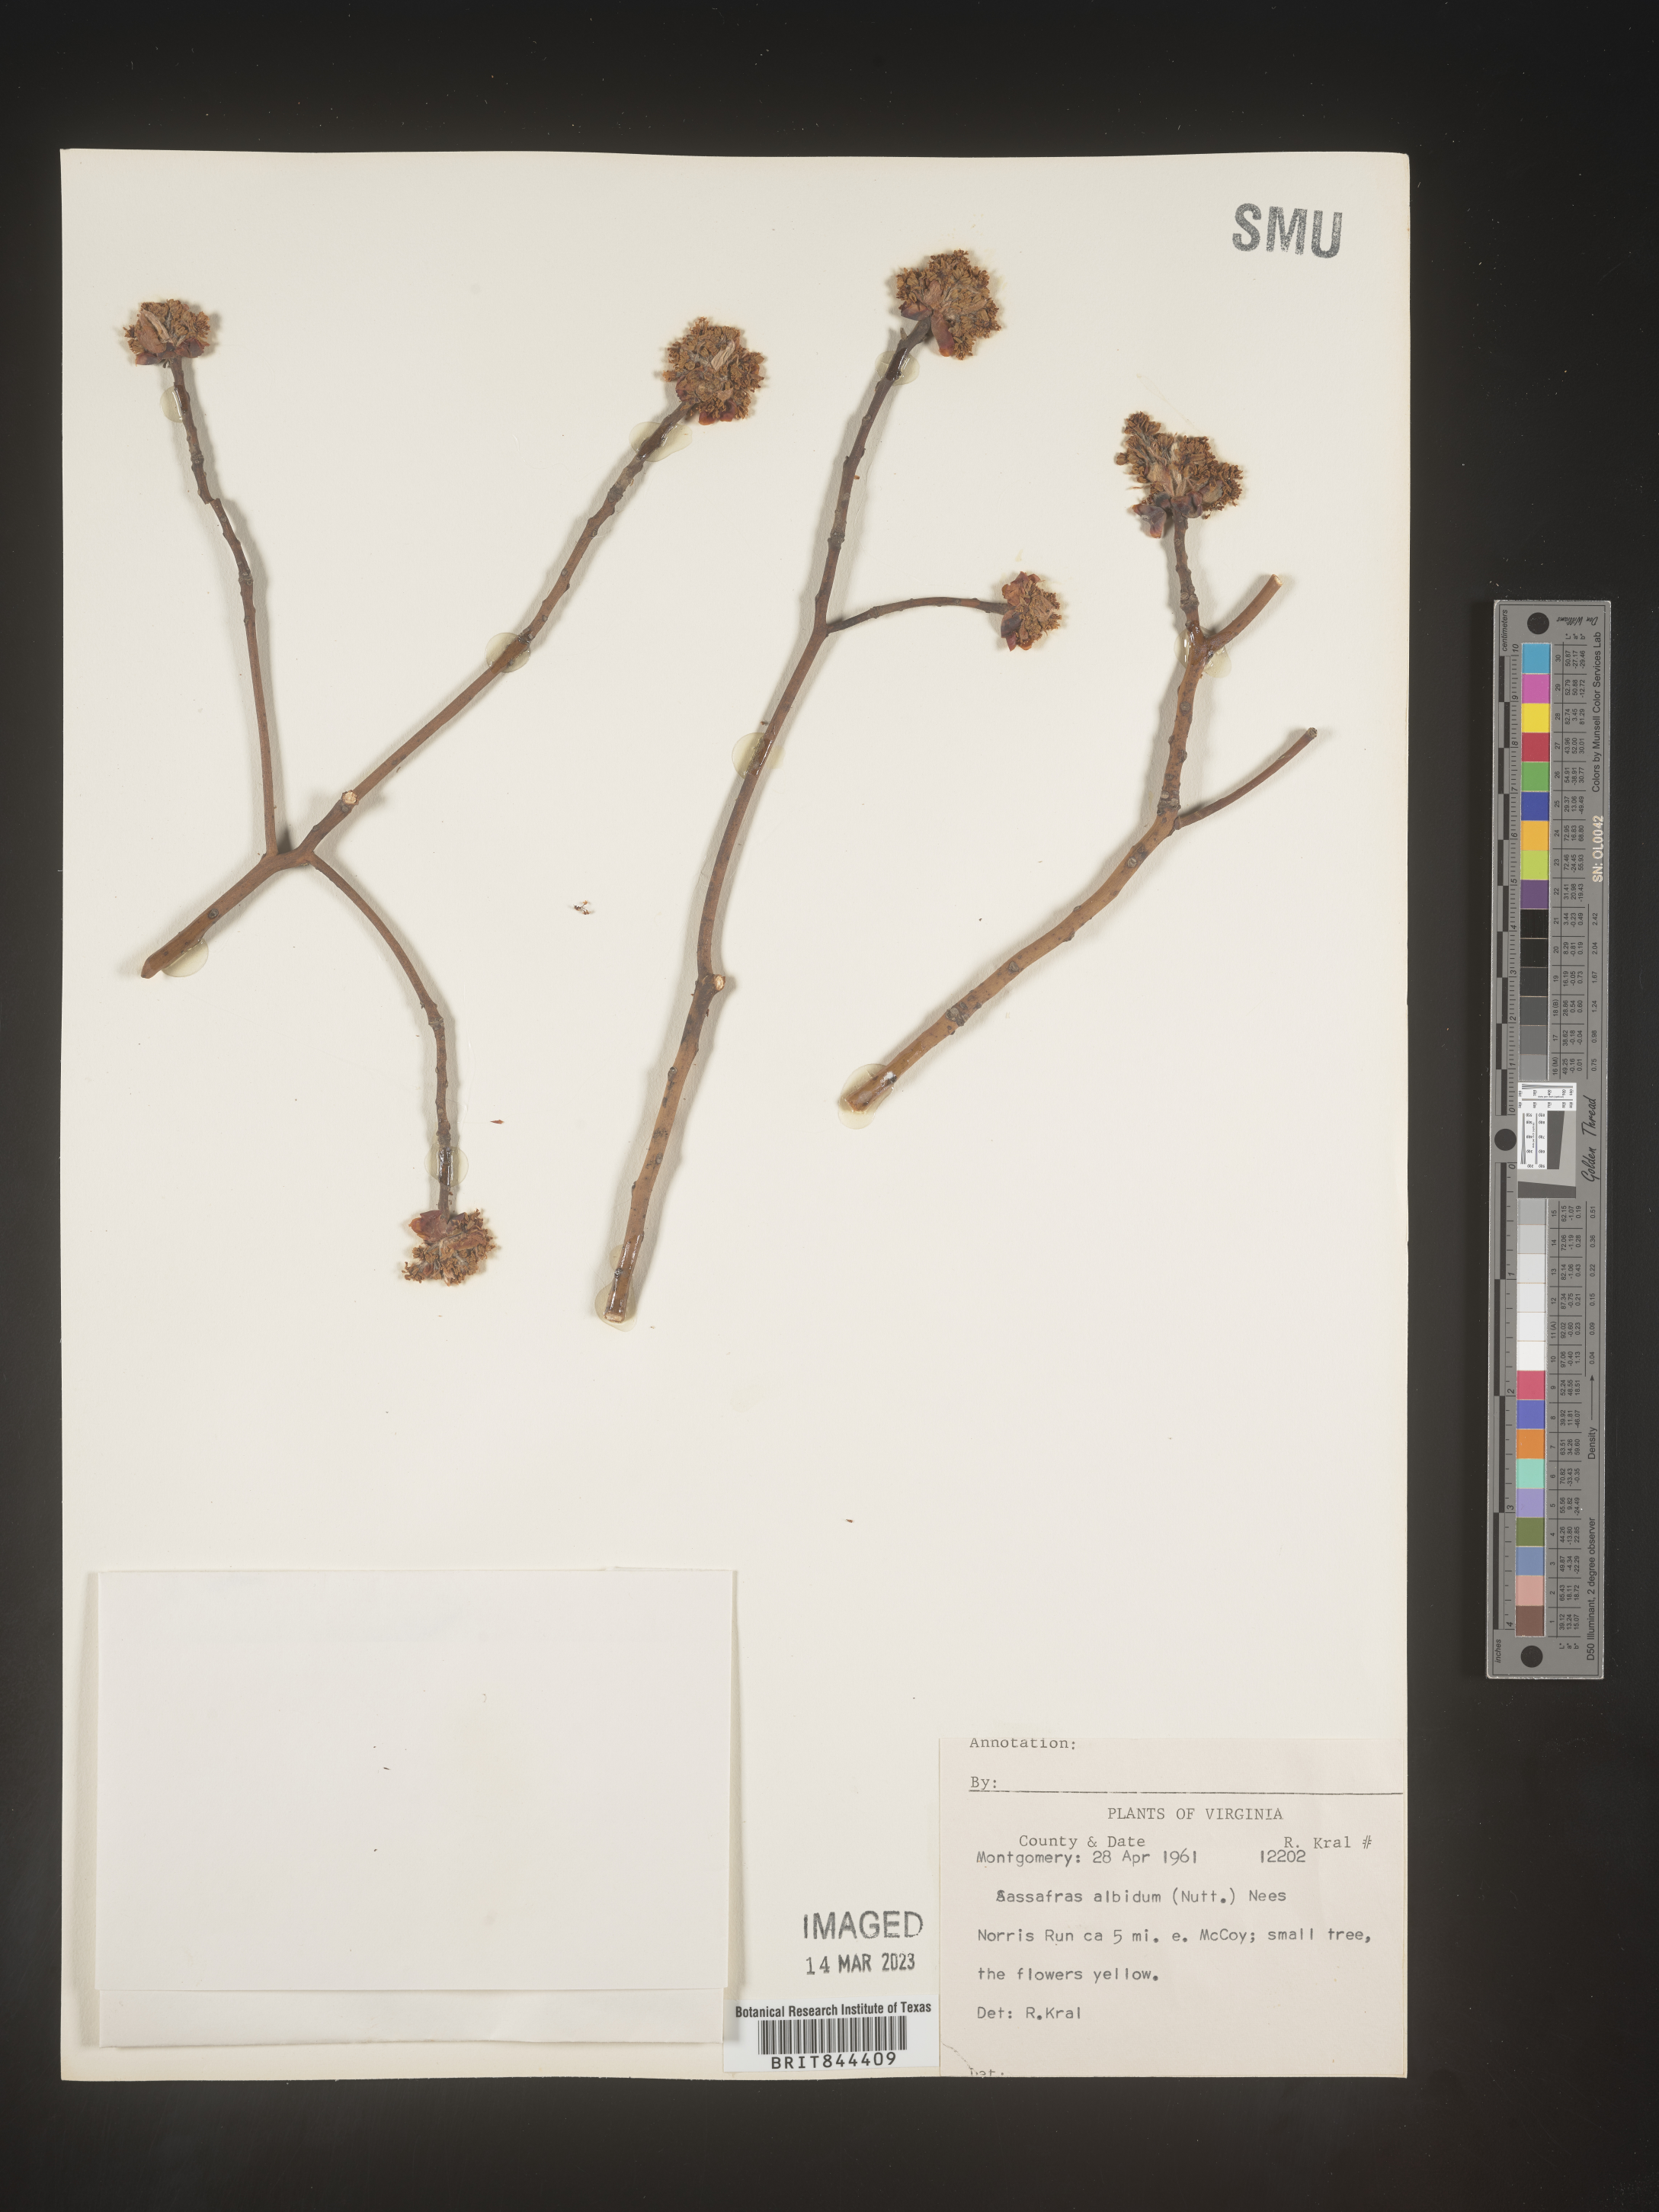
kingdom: Plantae
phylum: Tracheophyta
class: Magnoliopsida
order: Laurales
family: Lauraceae
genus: Sassafras
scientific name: Sassafras albidum
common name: Sassafras
